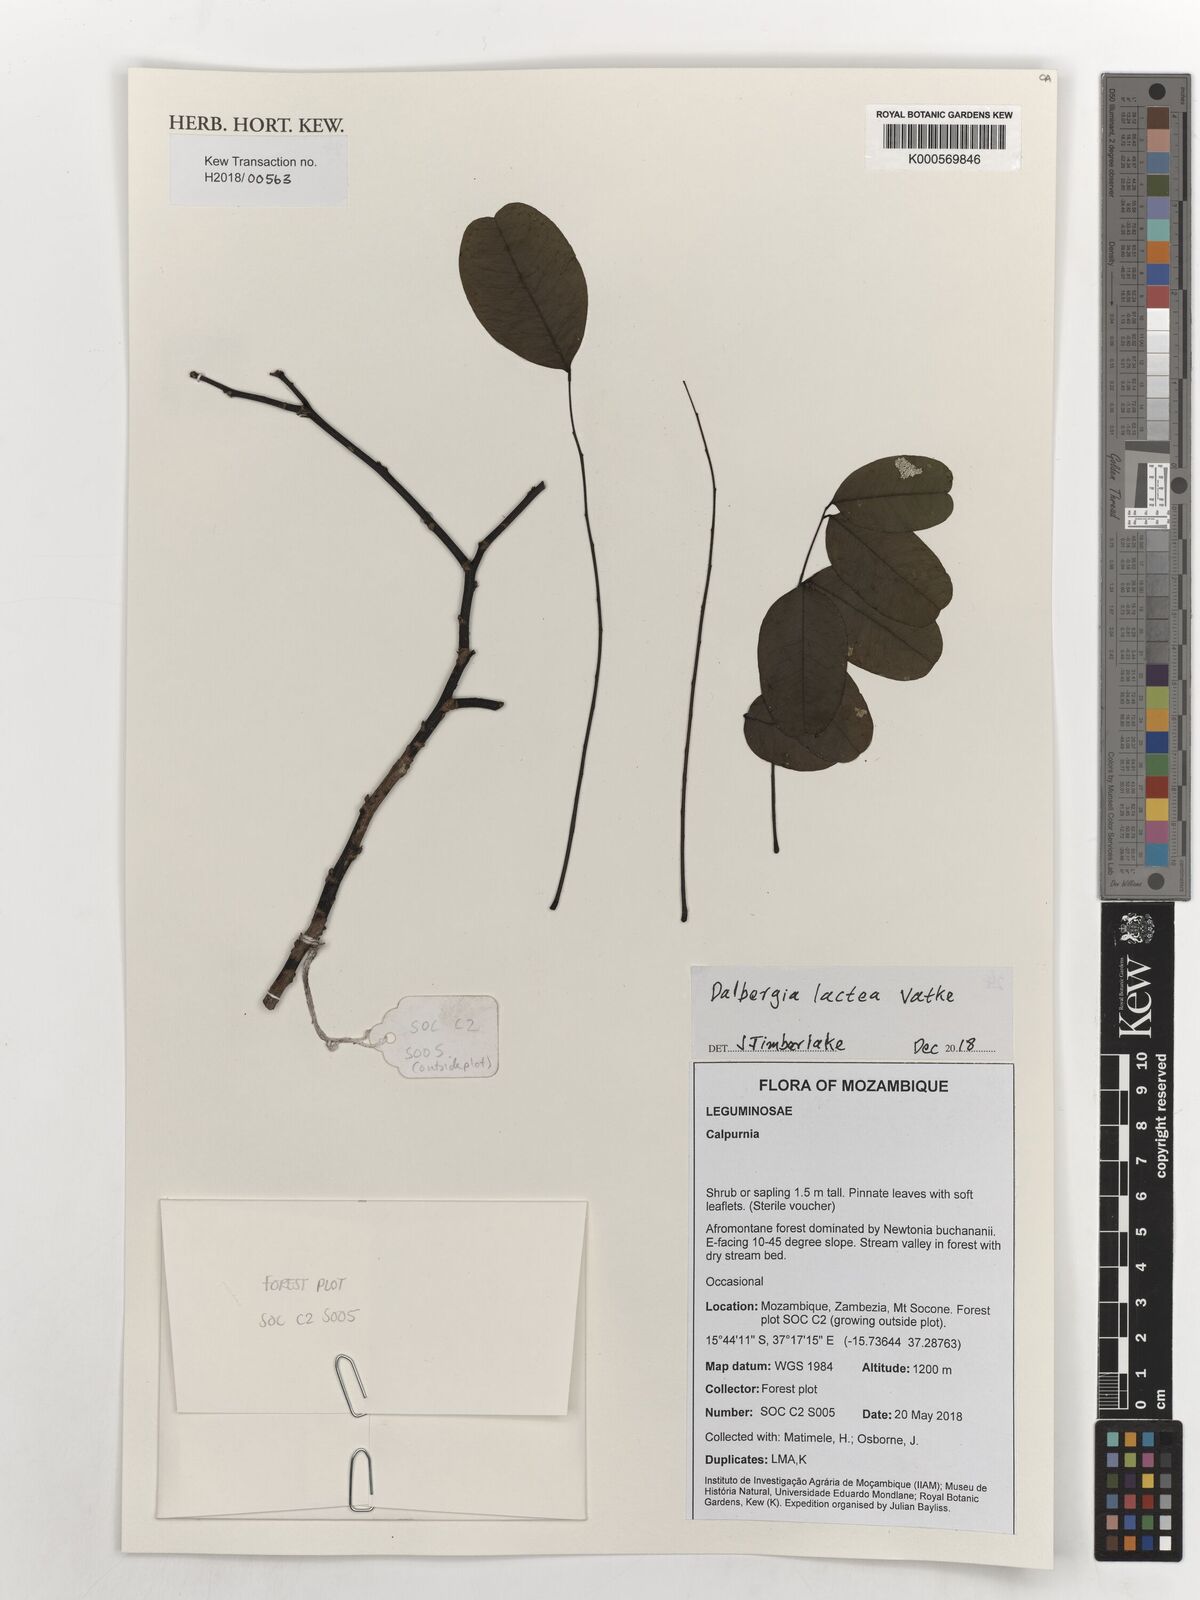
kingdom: Plantae
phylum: Tracheophyta
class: Magnoliopsida
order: Fabales
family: Fabaceae
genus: Dalbergia
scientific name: Dalbergia lactea
